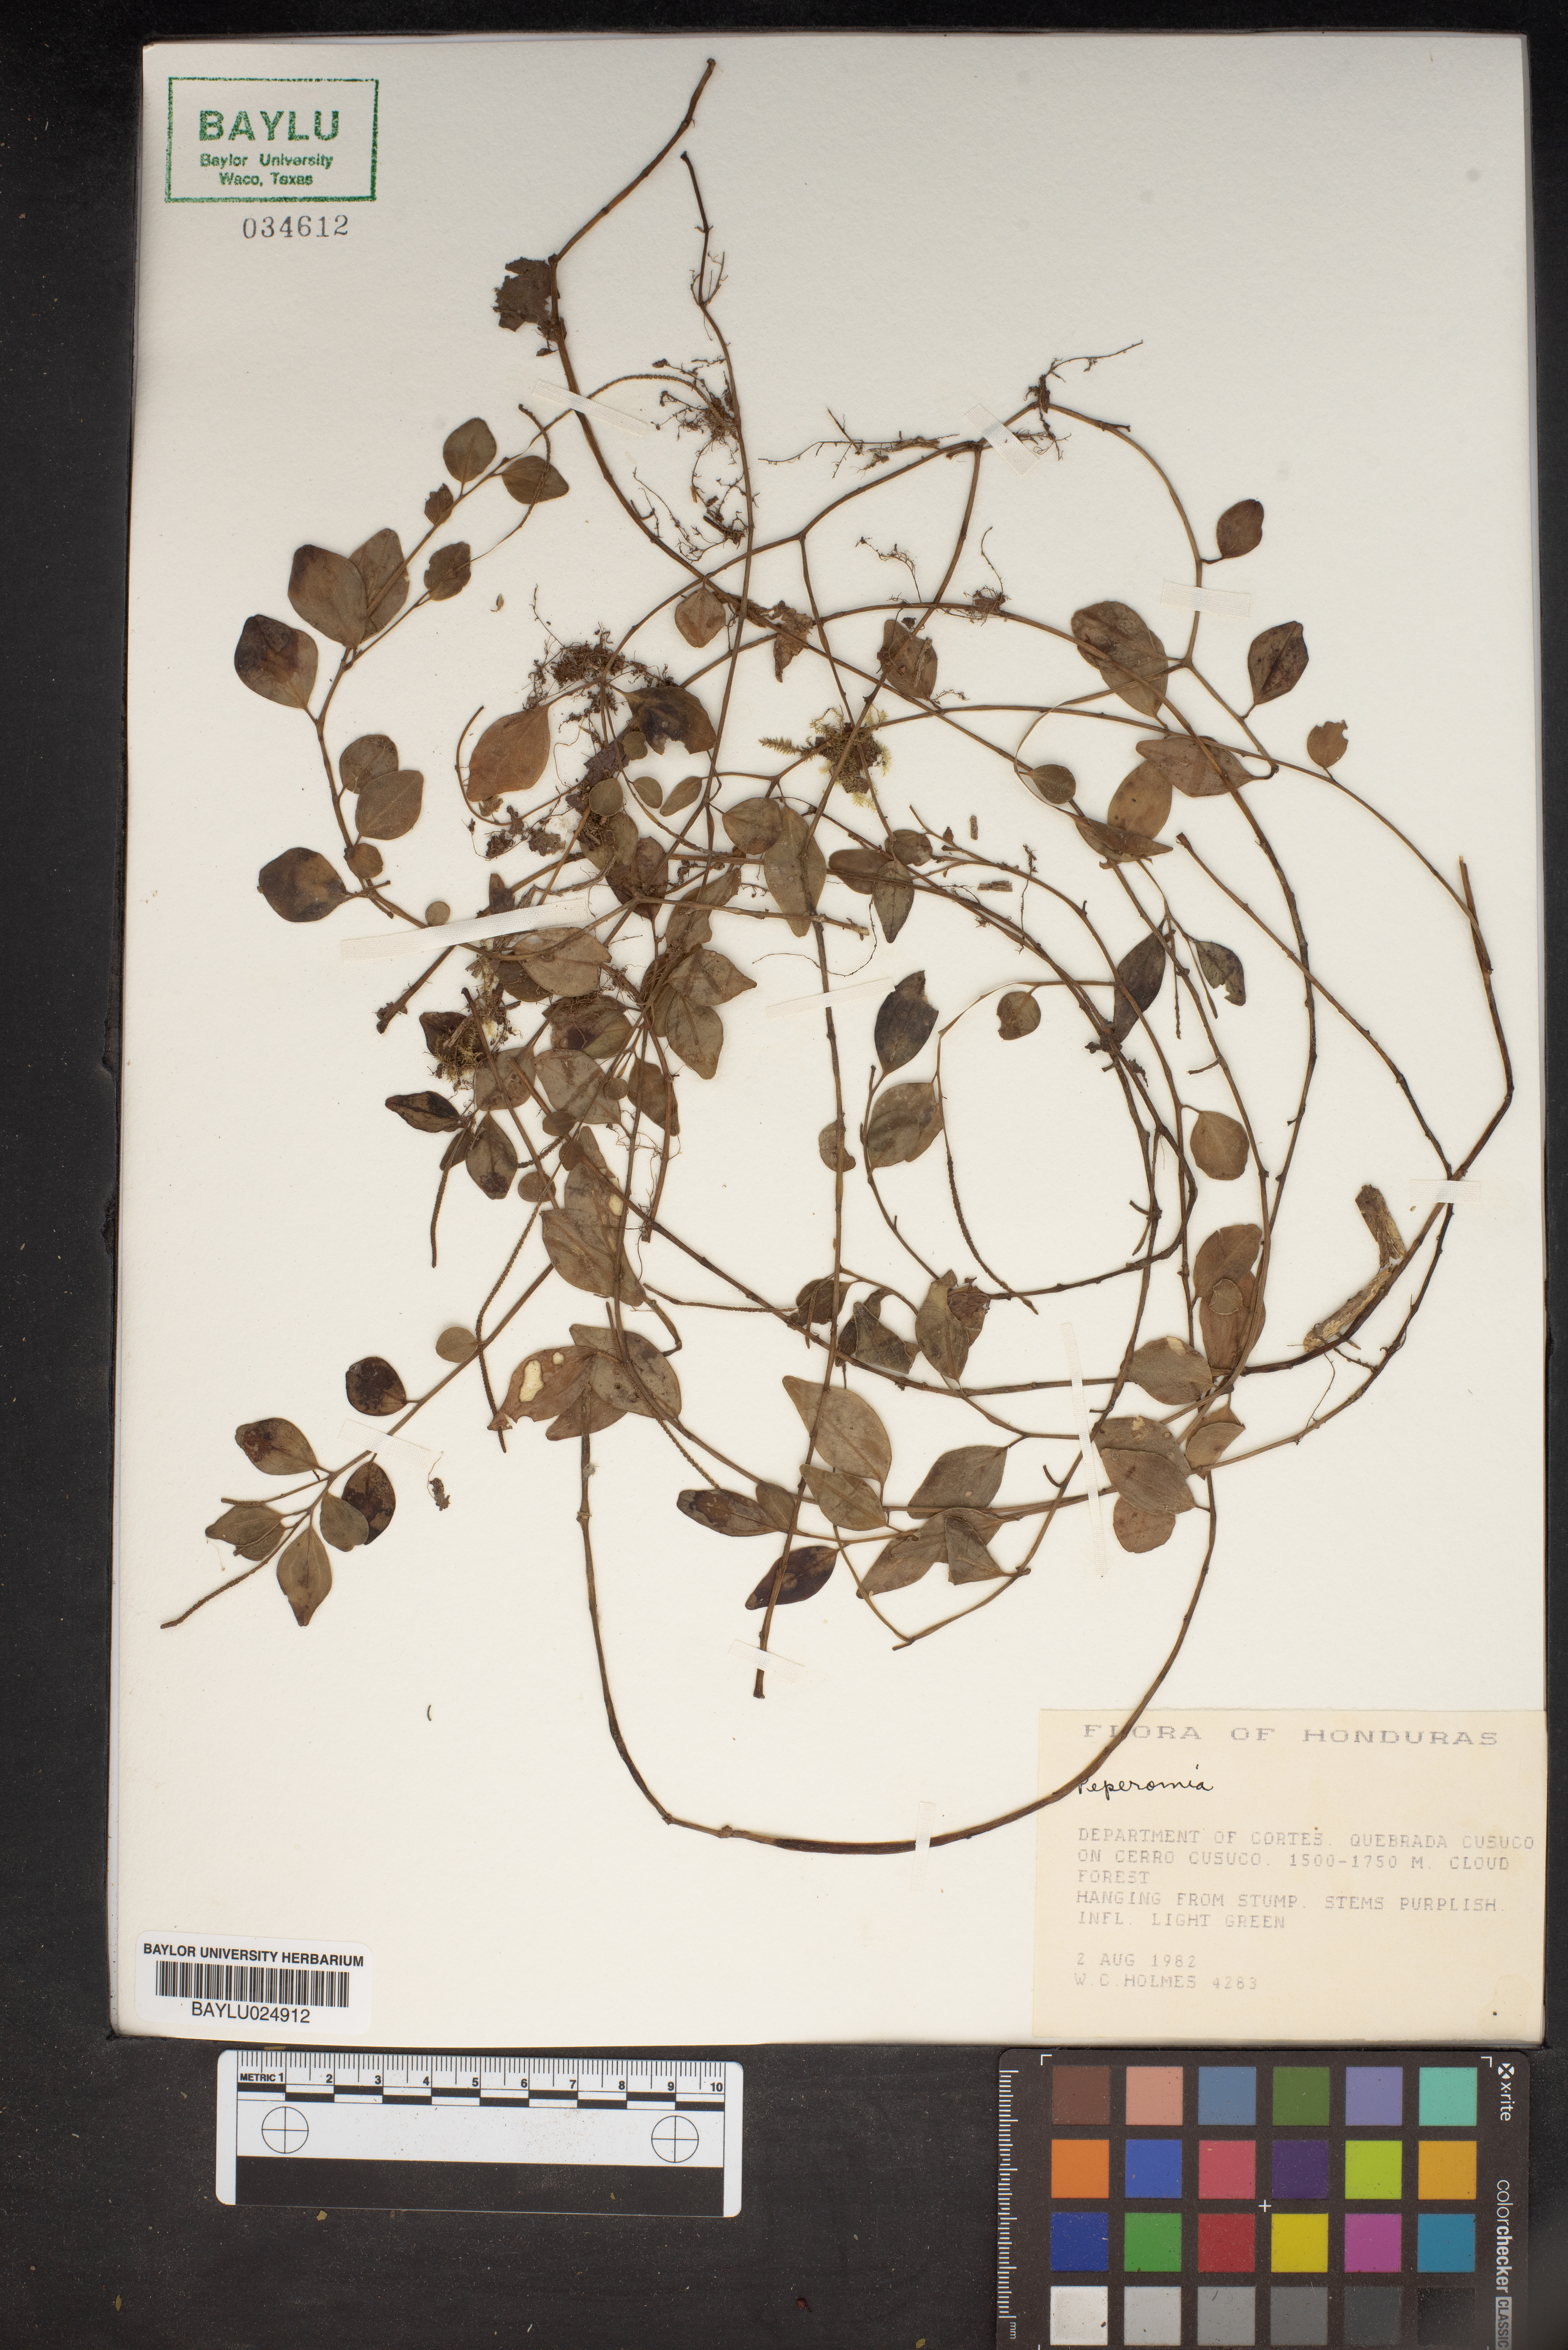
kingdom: Plantae
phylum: Tracheophyta
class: Magnoliopsida
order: Piperales
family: Piperaceae
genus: Peperomia
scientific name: Peperomia
